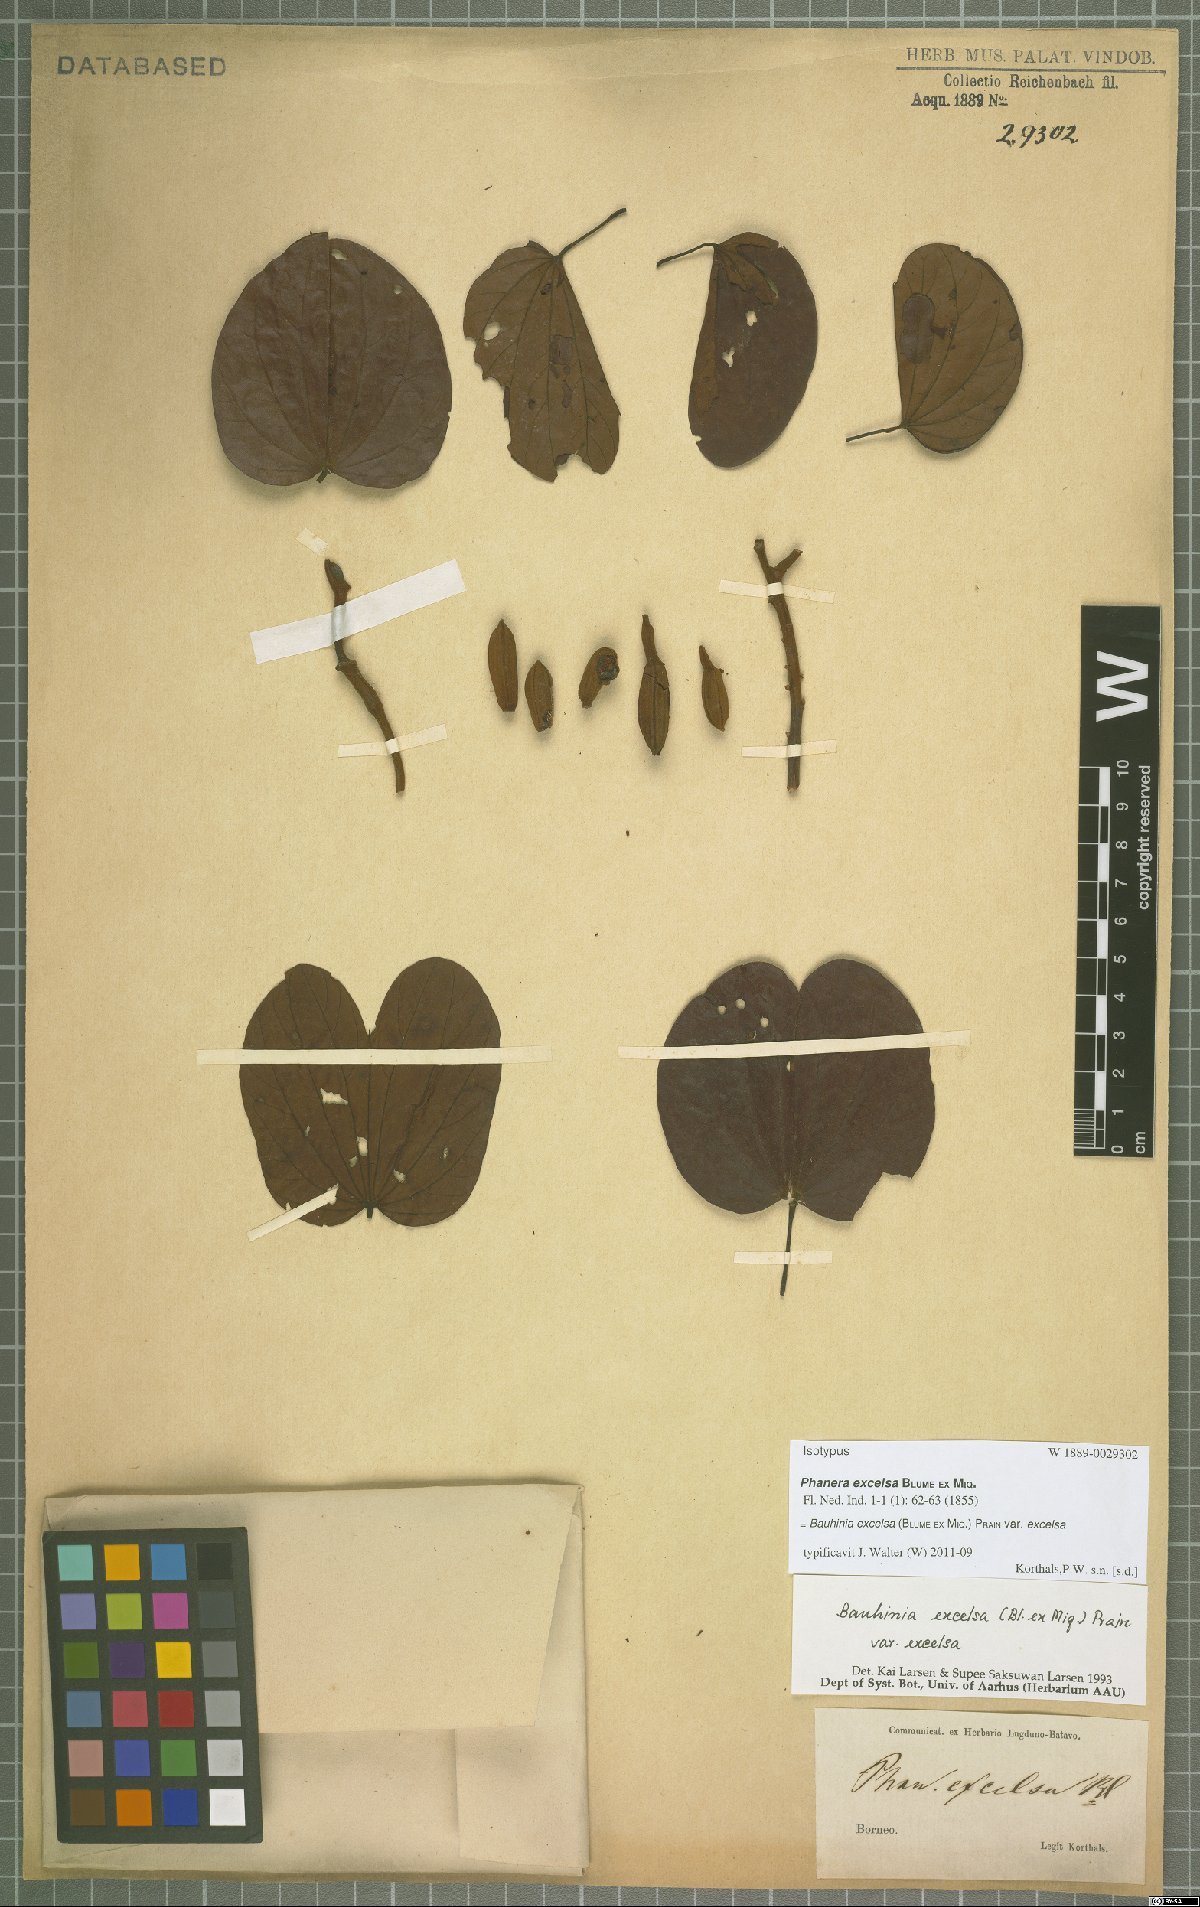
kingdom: Plantae
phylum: Tracheophyta
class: Magnoliopsida
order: Fabales
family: Fabaceae
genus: Phanera
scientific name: Phanera excelsa
